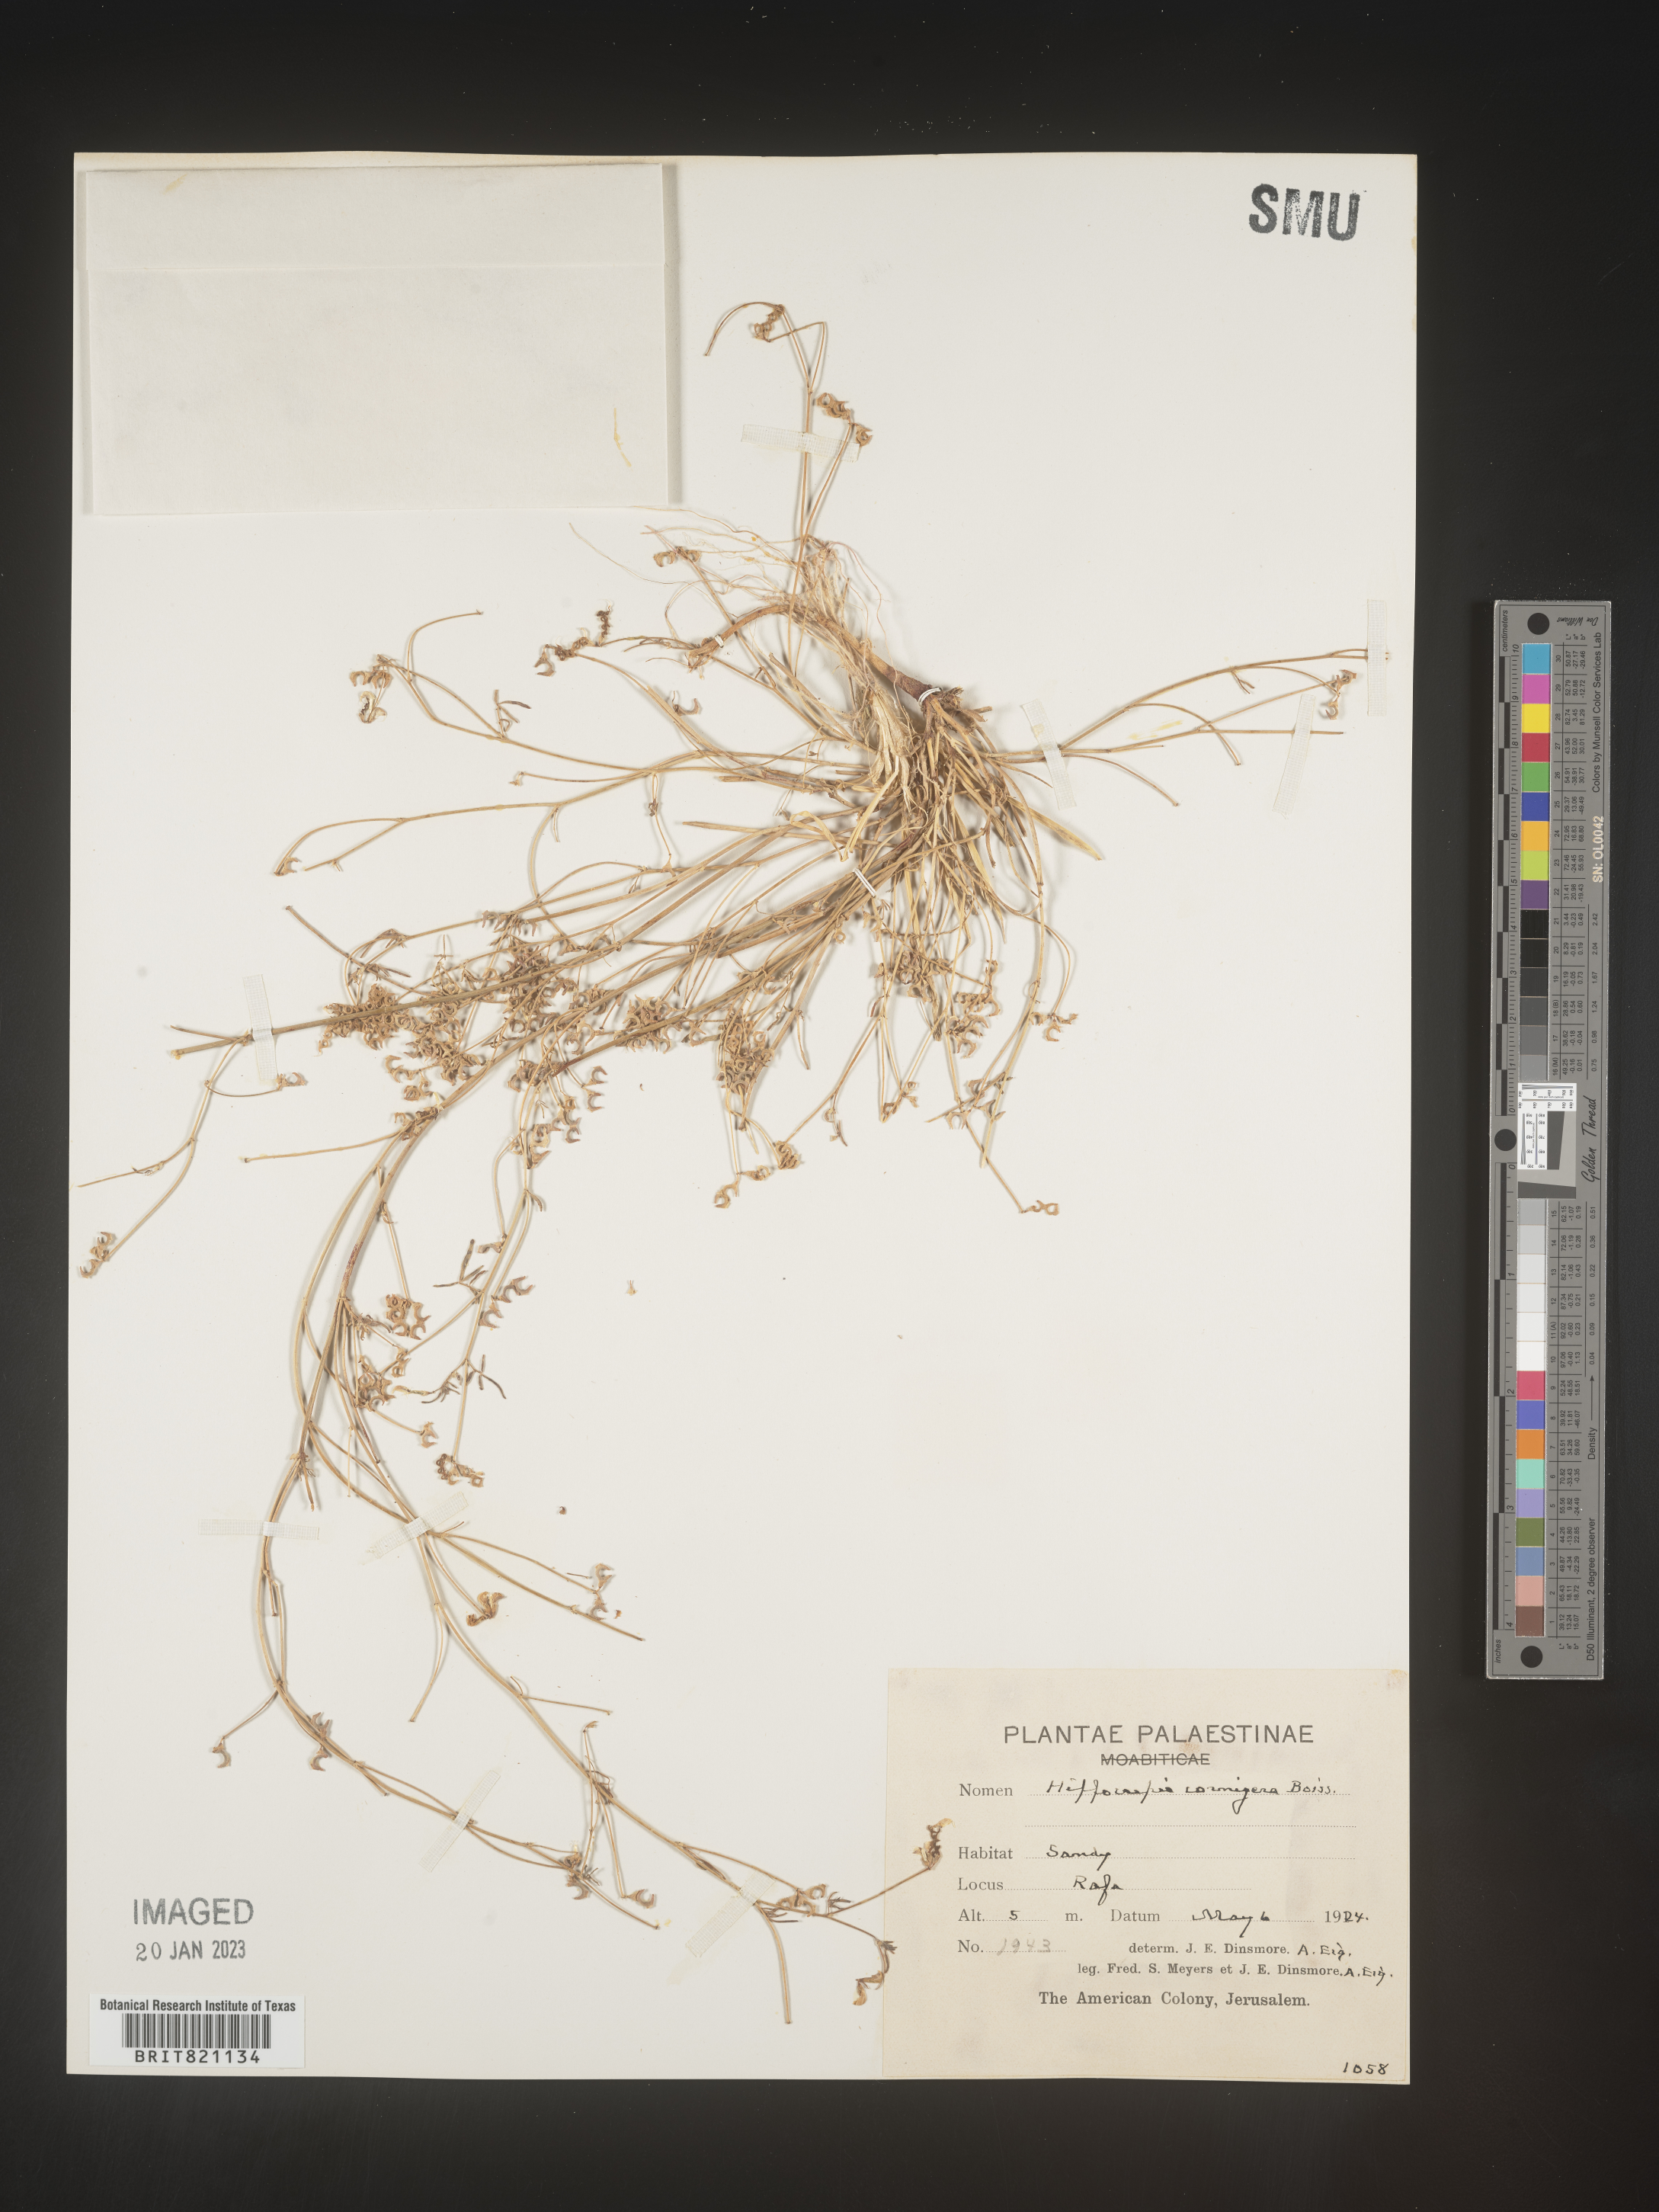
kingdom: Plantae
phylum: Tracheophyta
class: Magnoliopsida
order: Fabales
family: Fabaceae
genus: Hippocrepis
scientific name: Hippocrepis
